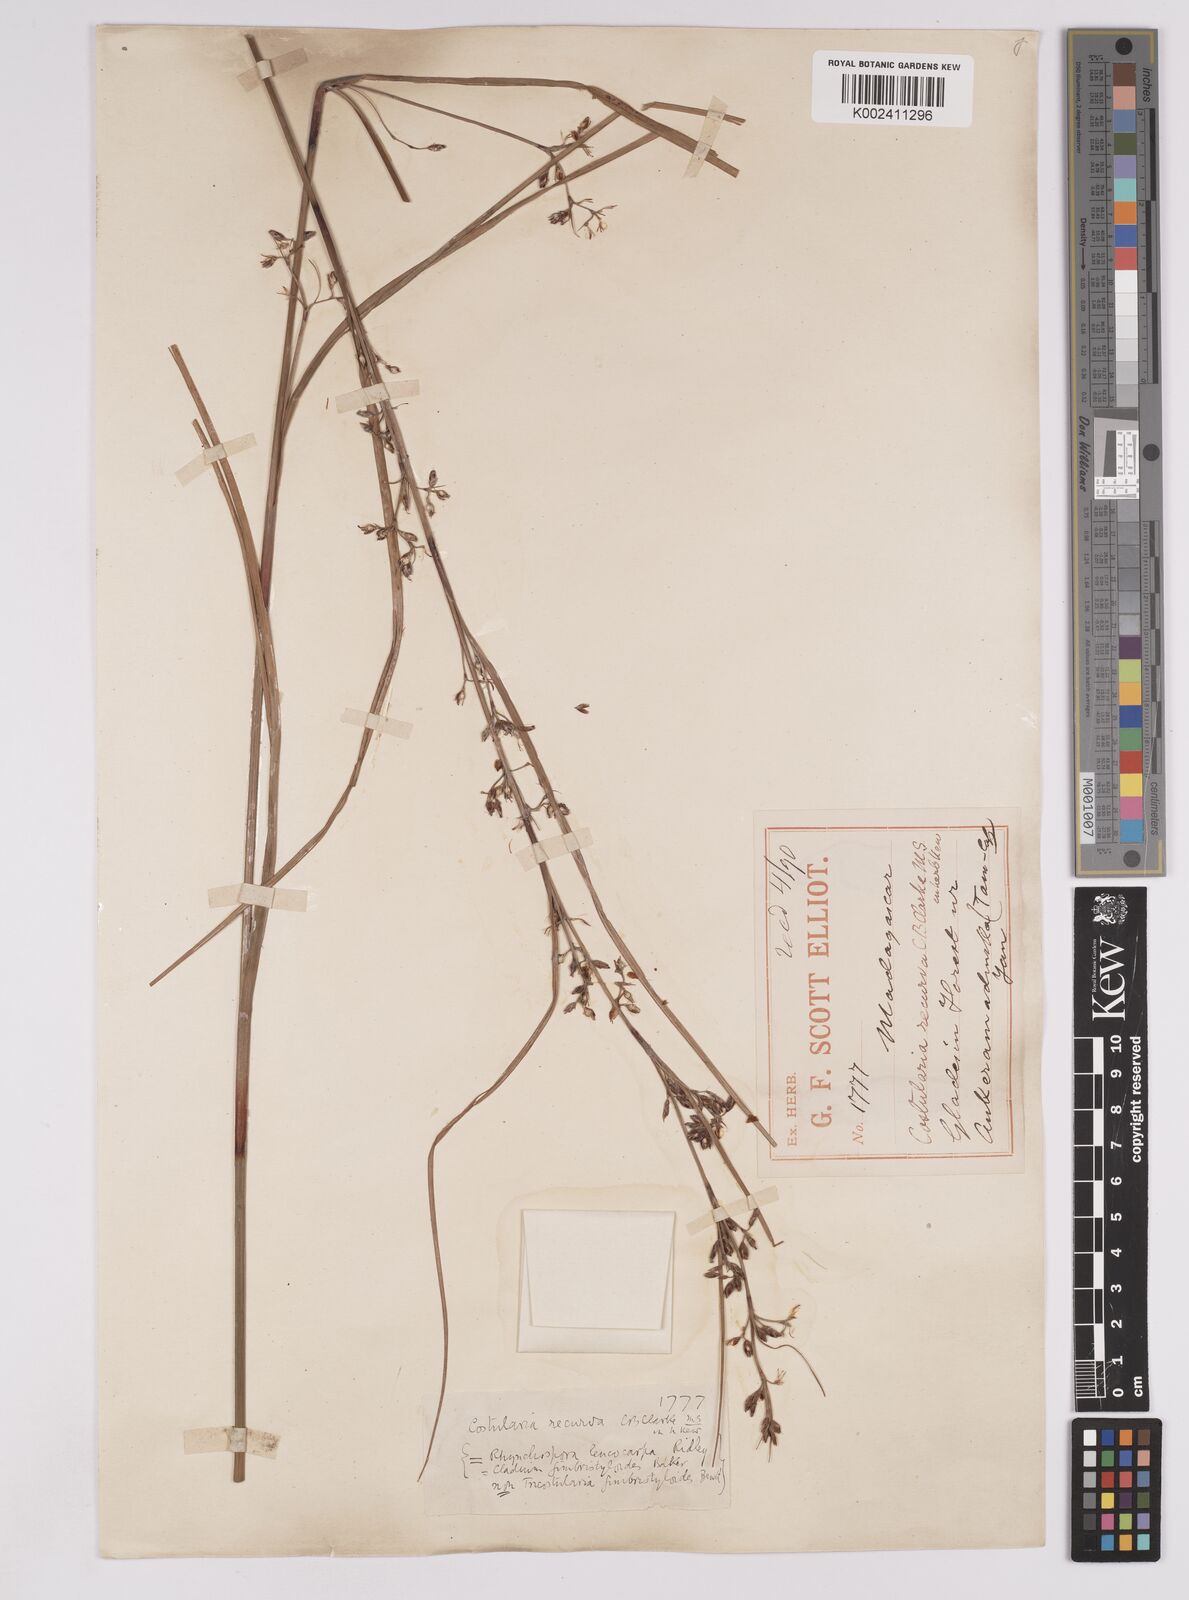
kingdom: Plantae
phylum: Tracheophyta
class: Liliopsida
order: Poales
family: Cyperaceae
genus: Costularia
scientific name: Costularia leucocarpa
